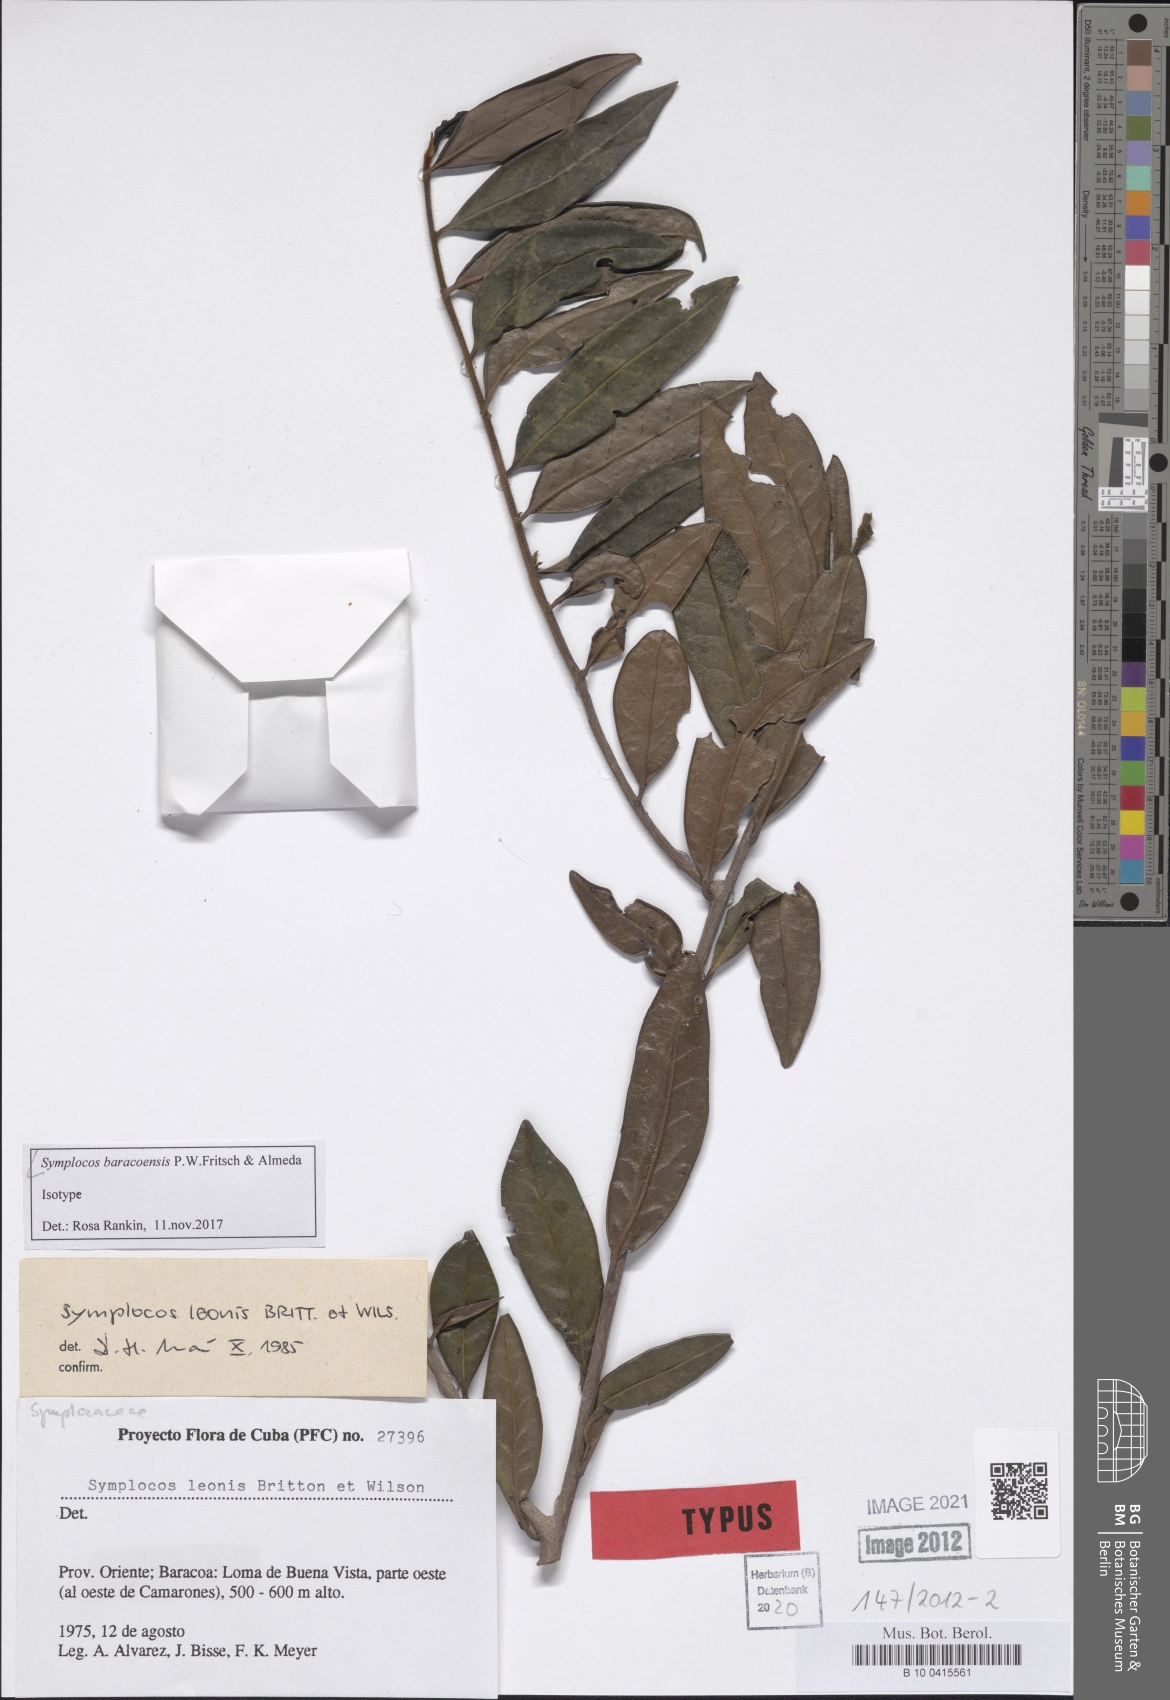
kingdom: Plantae
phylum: Tracheophyta
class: Magnoliopsida
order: Ericales
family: Symplocaceae
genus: Symplocos
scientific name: Symplocos baracoensis
